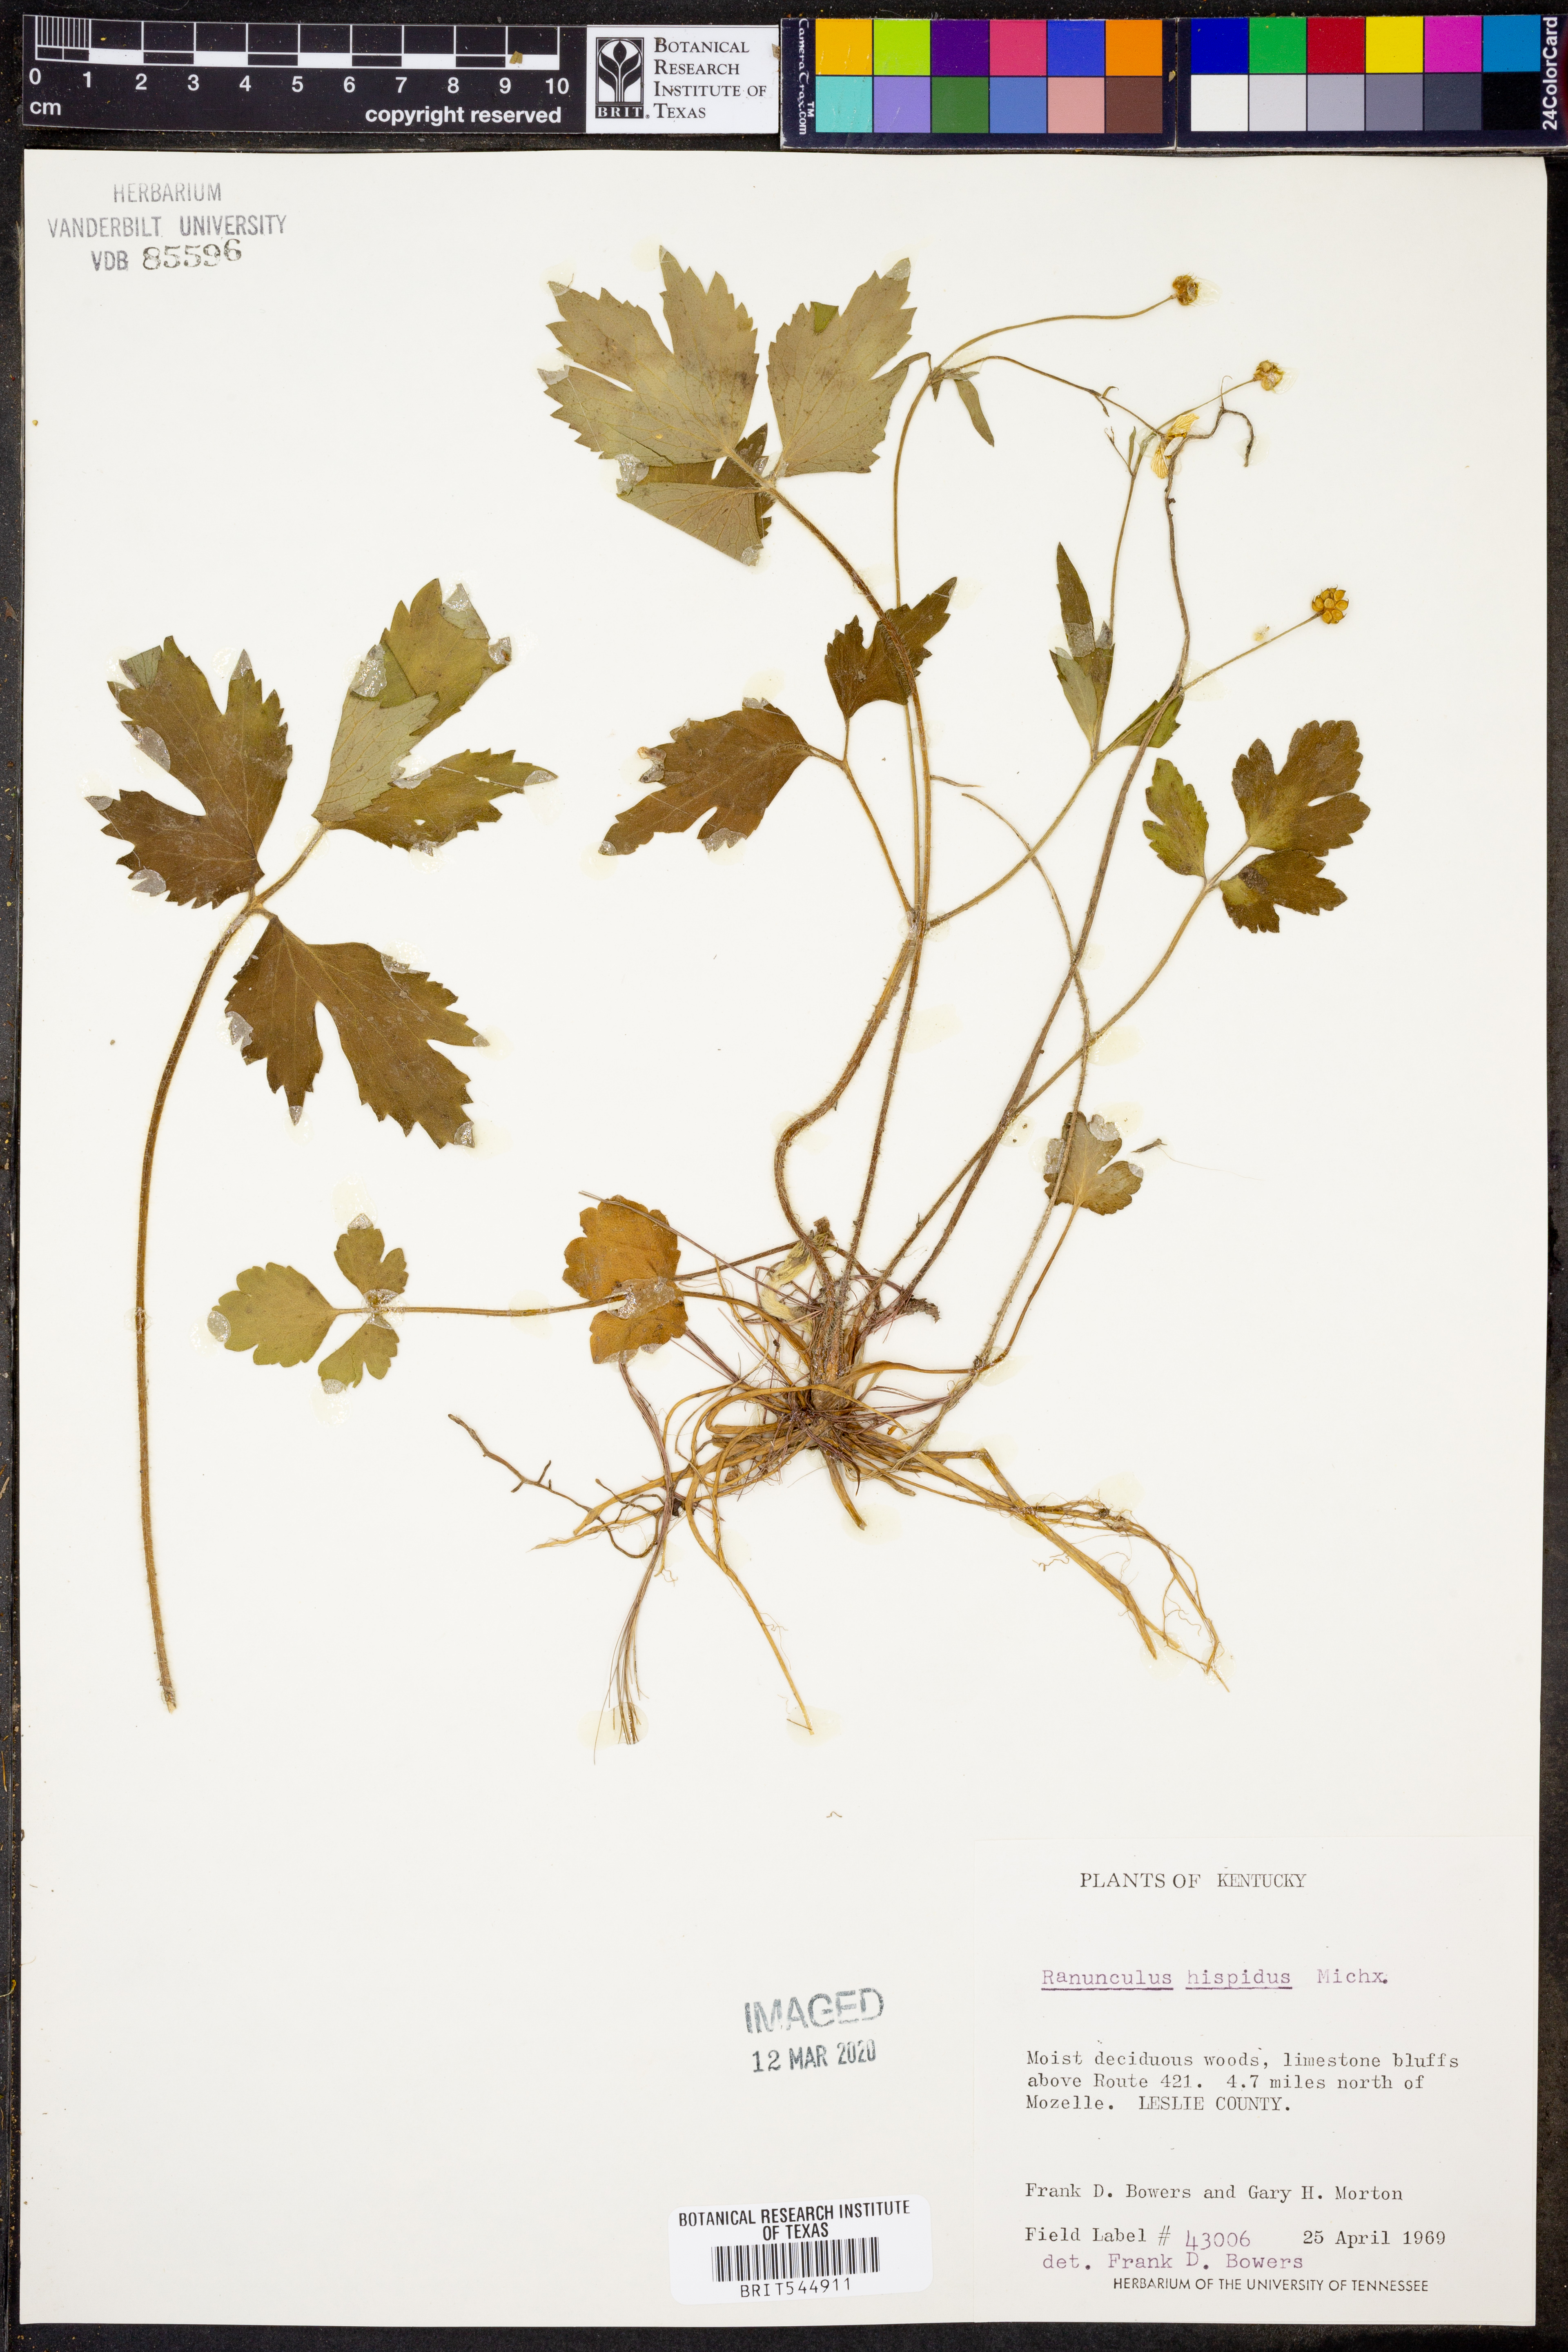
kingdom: Plantae
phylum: Tracheophyta
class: Magnoliopsida
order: Ranunculales
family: Ranunculaceae
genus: Ranunculus
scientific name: Ranunculus hispidus
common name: Bristly buttercup
